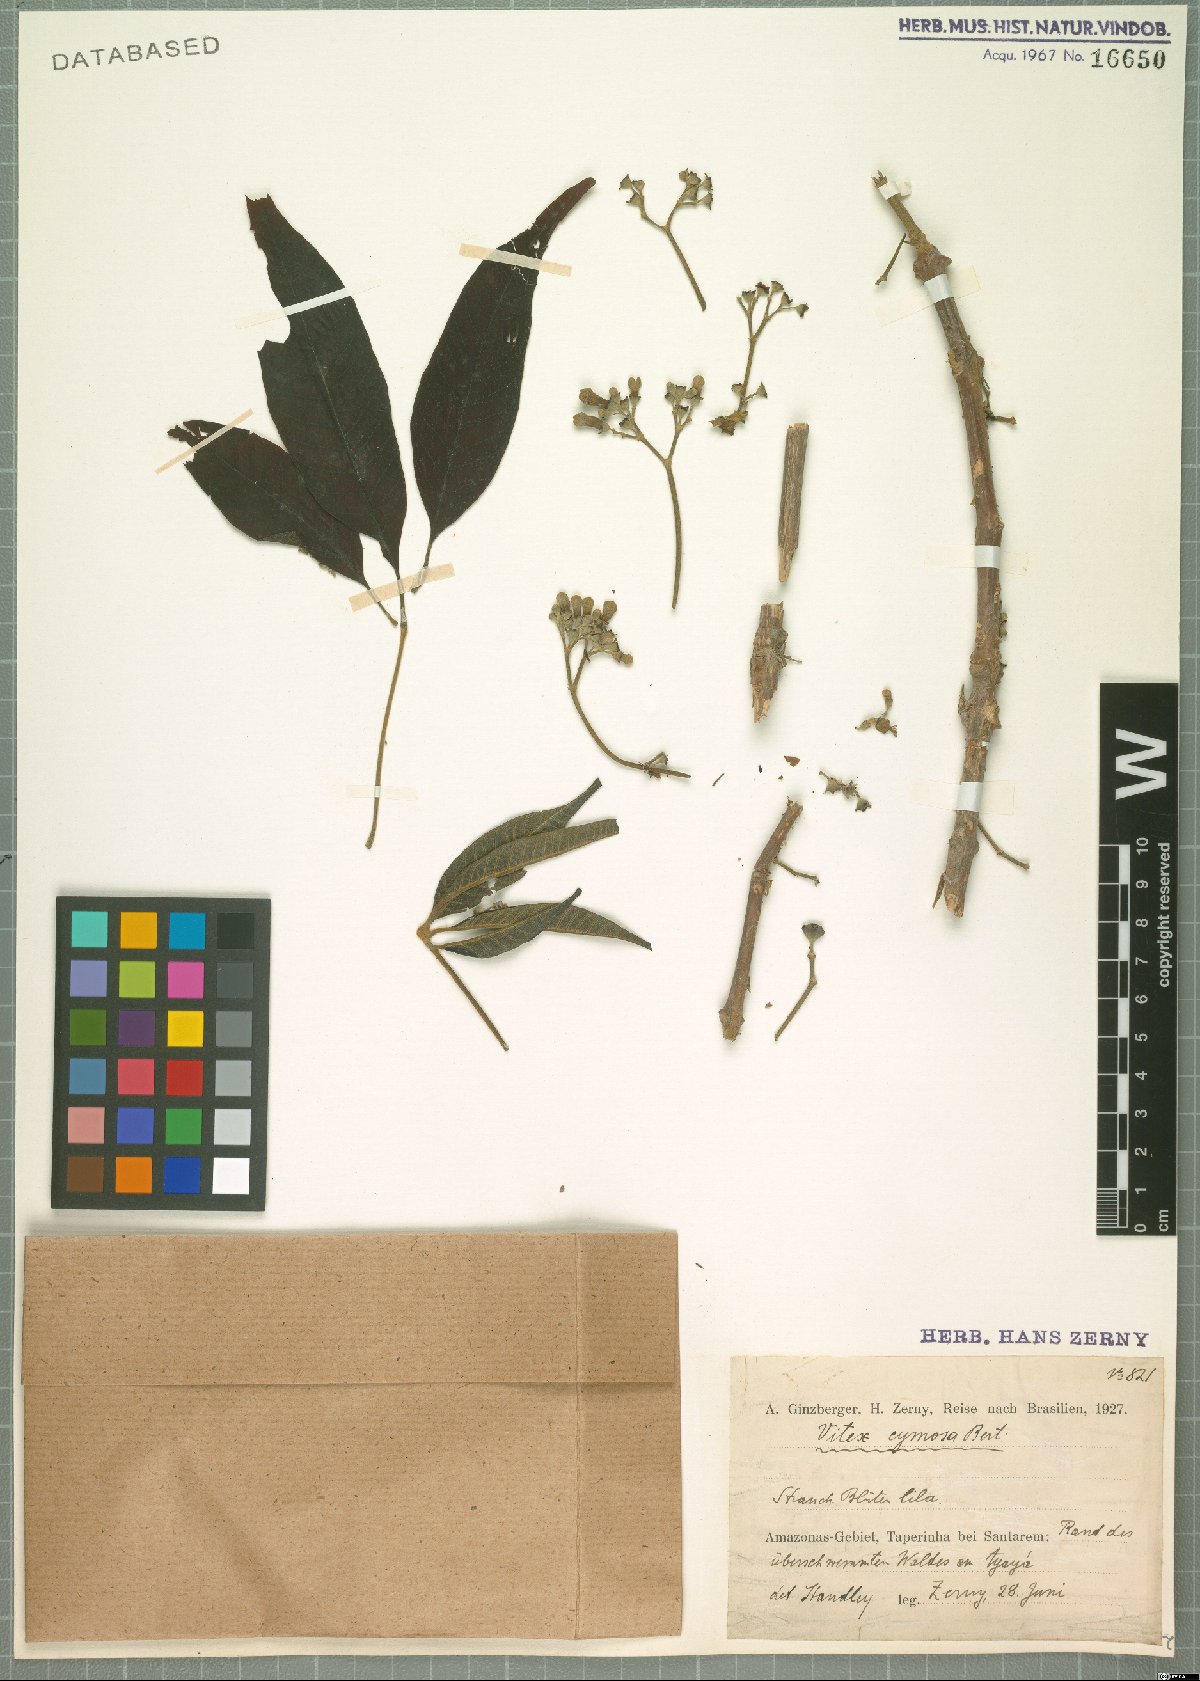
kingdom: Plantae
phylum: Tracheophyta
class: Magnoliopsida
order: Lamiales
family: Lamiaceae
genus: Vitex
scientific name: Vitex cymosa
